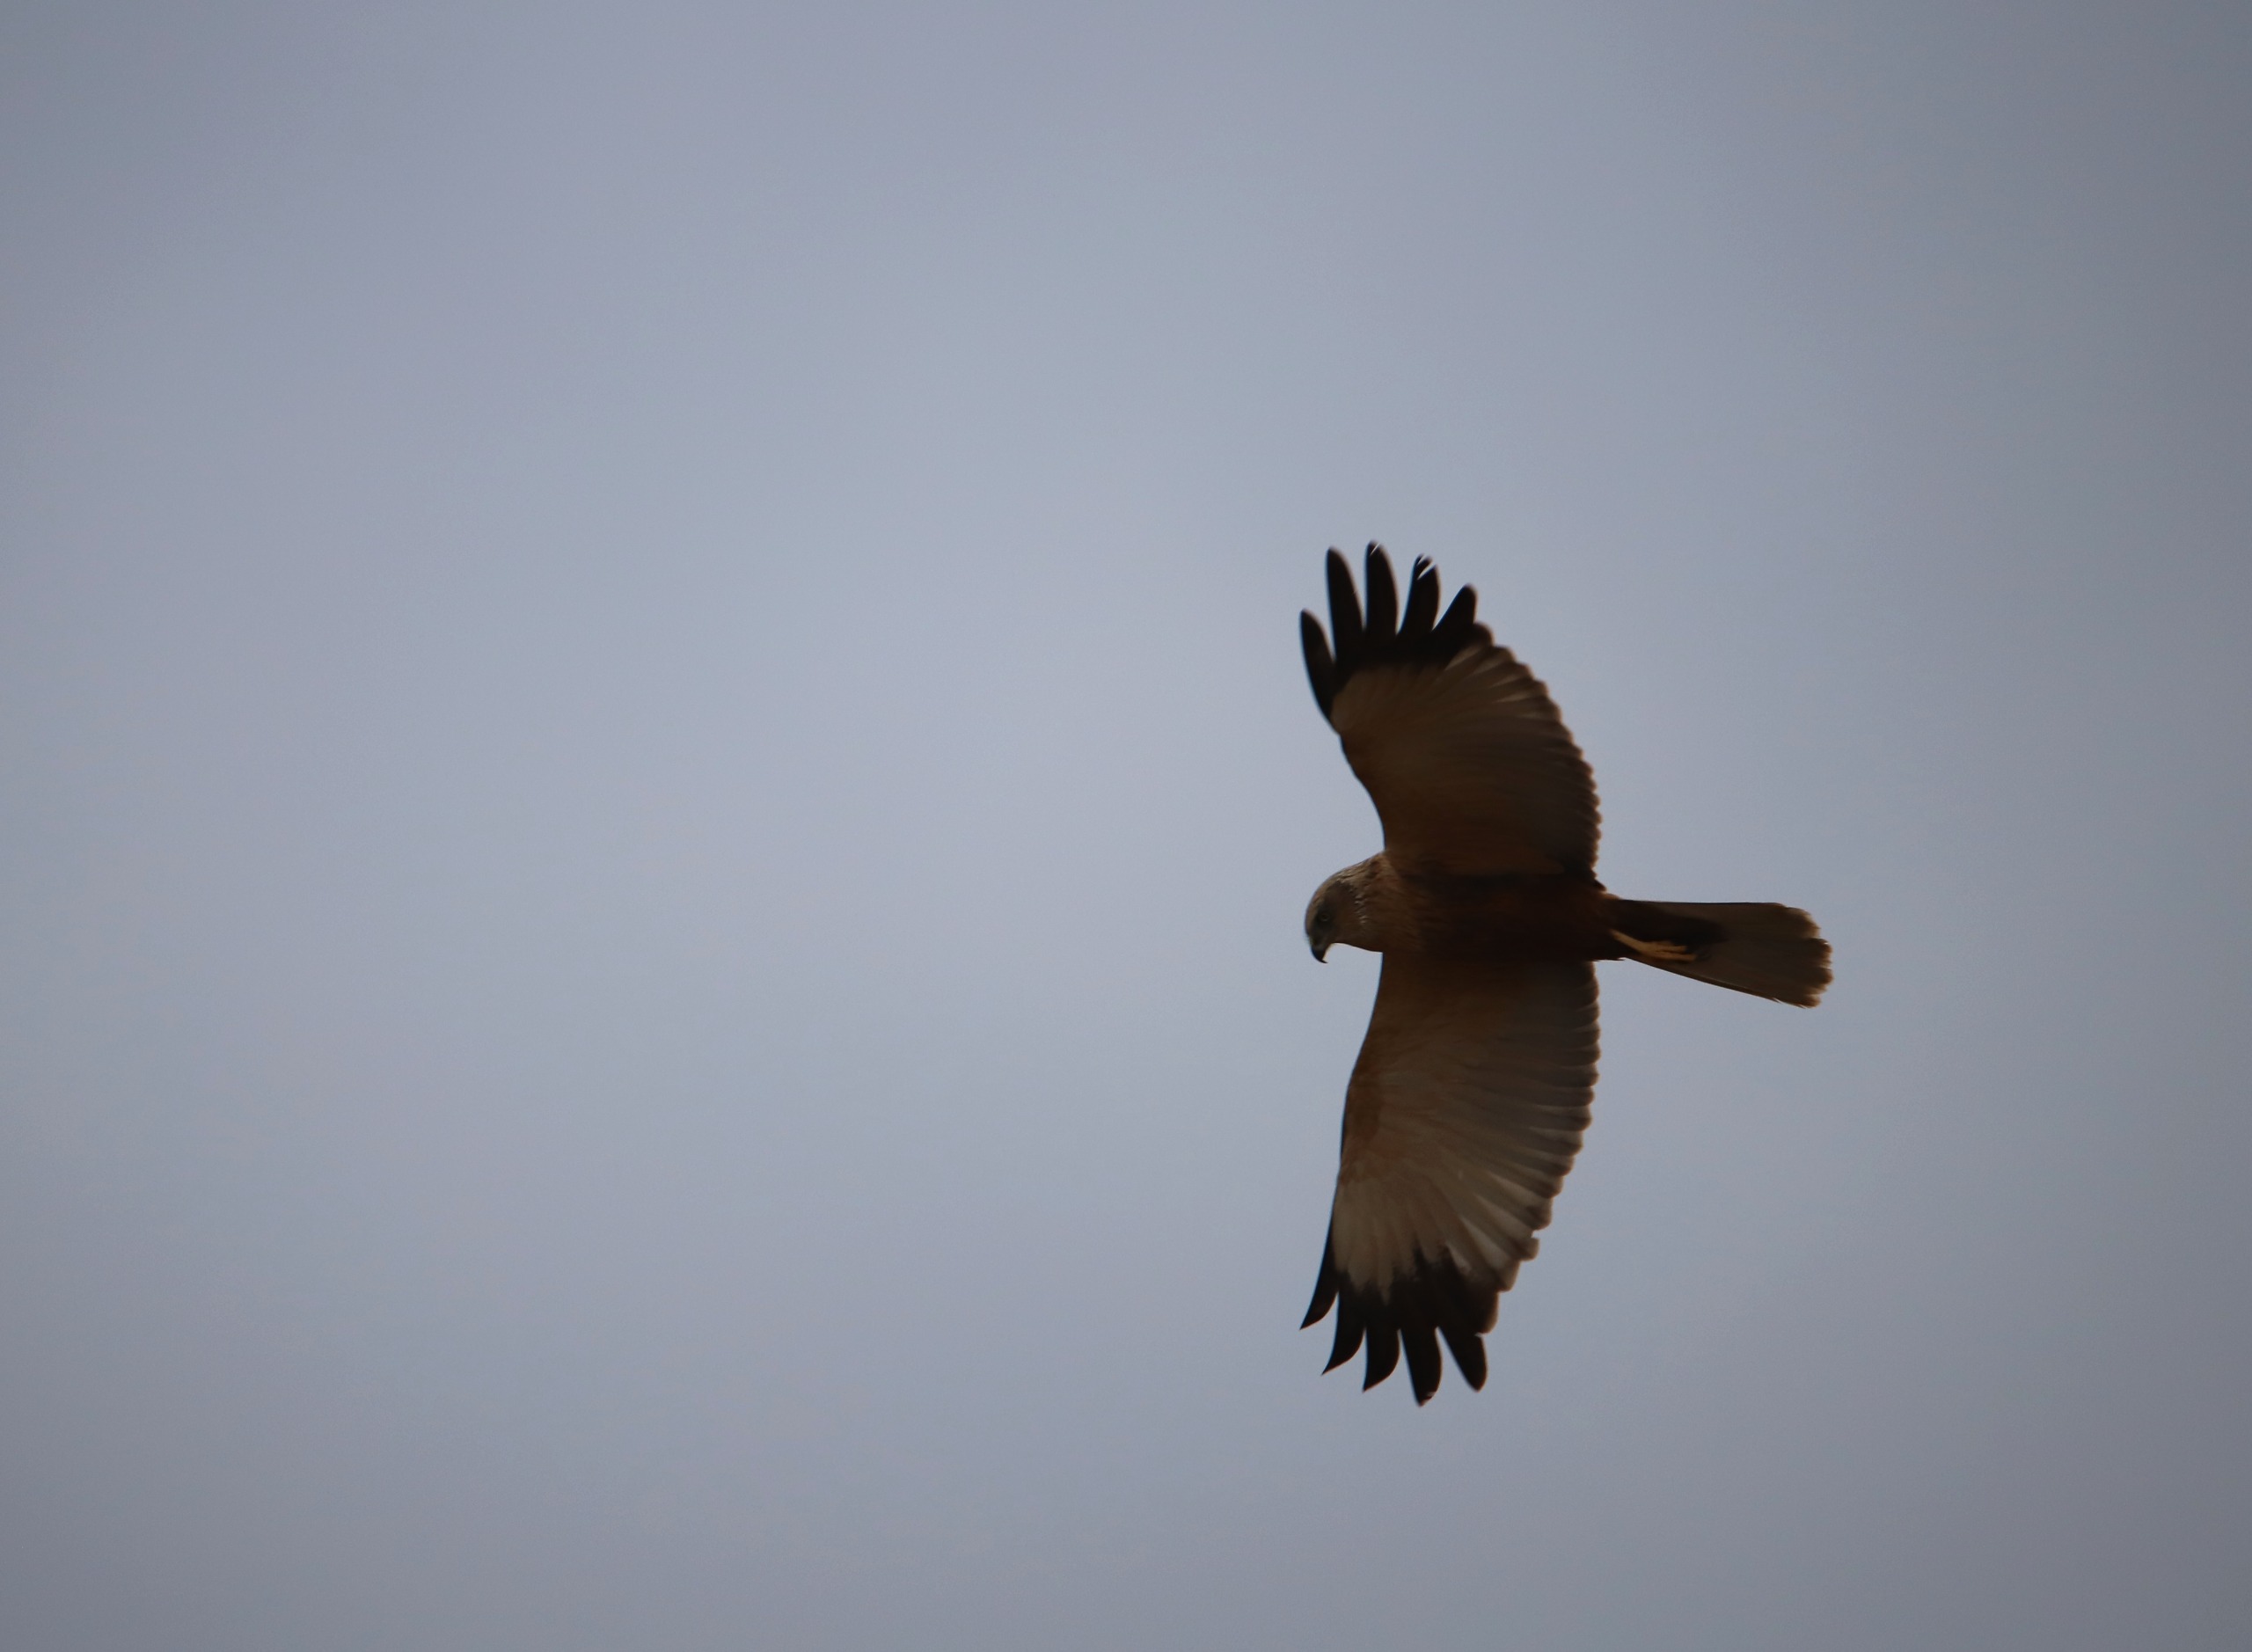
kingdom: Animalia
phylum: Chordata
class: Aves
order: Accipitriformes
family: Accipitridae
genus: Circus
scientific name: Circus aeruginosus
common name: Rørhøg
